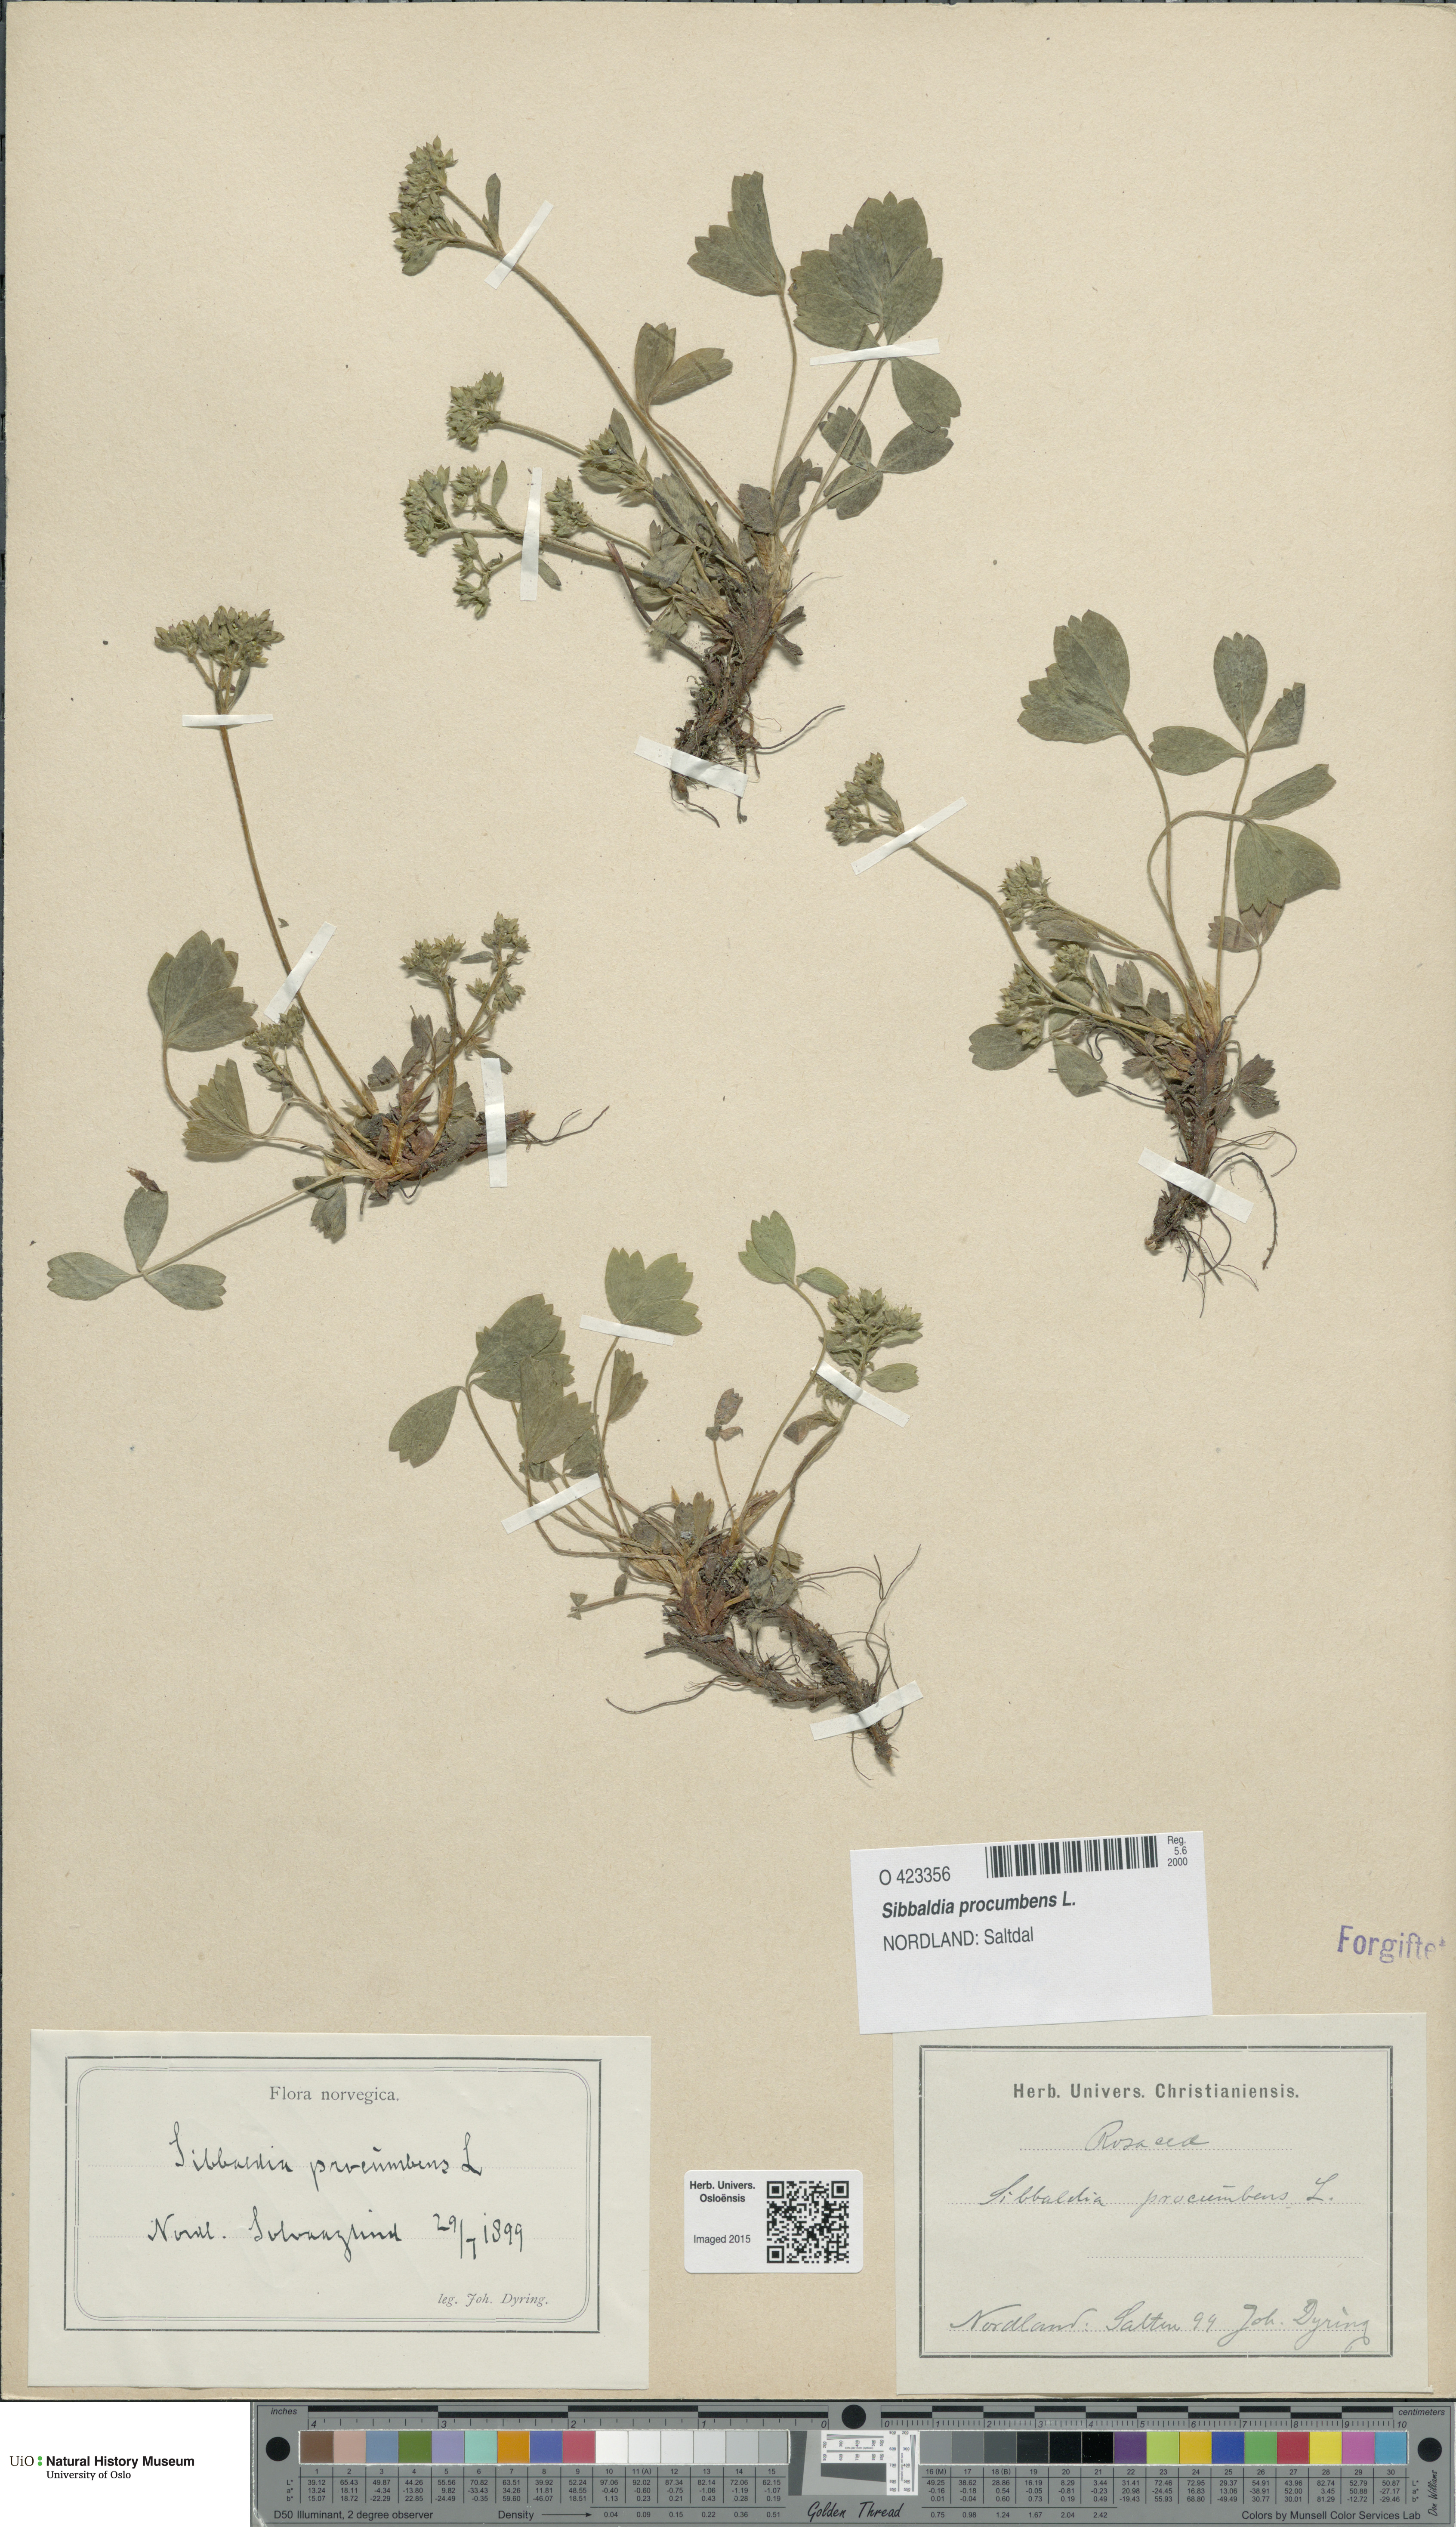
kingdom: Plantae
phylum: Tracheophyta
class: Magnoliopsida
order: Rosales
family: Rosaceae
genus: Sibbaldia
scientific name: Sibbaldia procumbens
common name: Creeping sibbaldia
